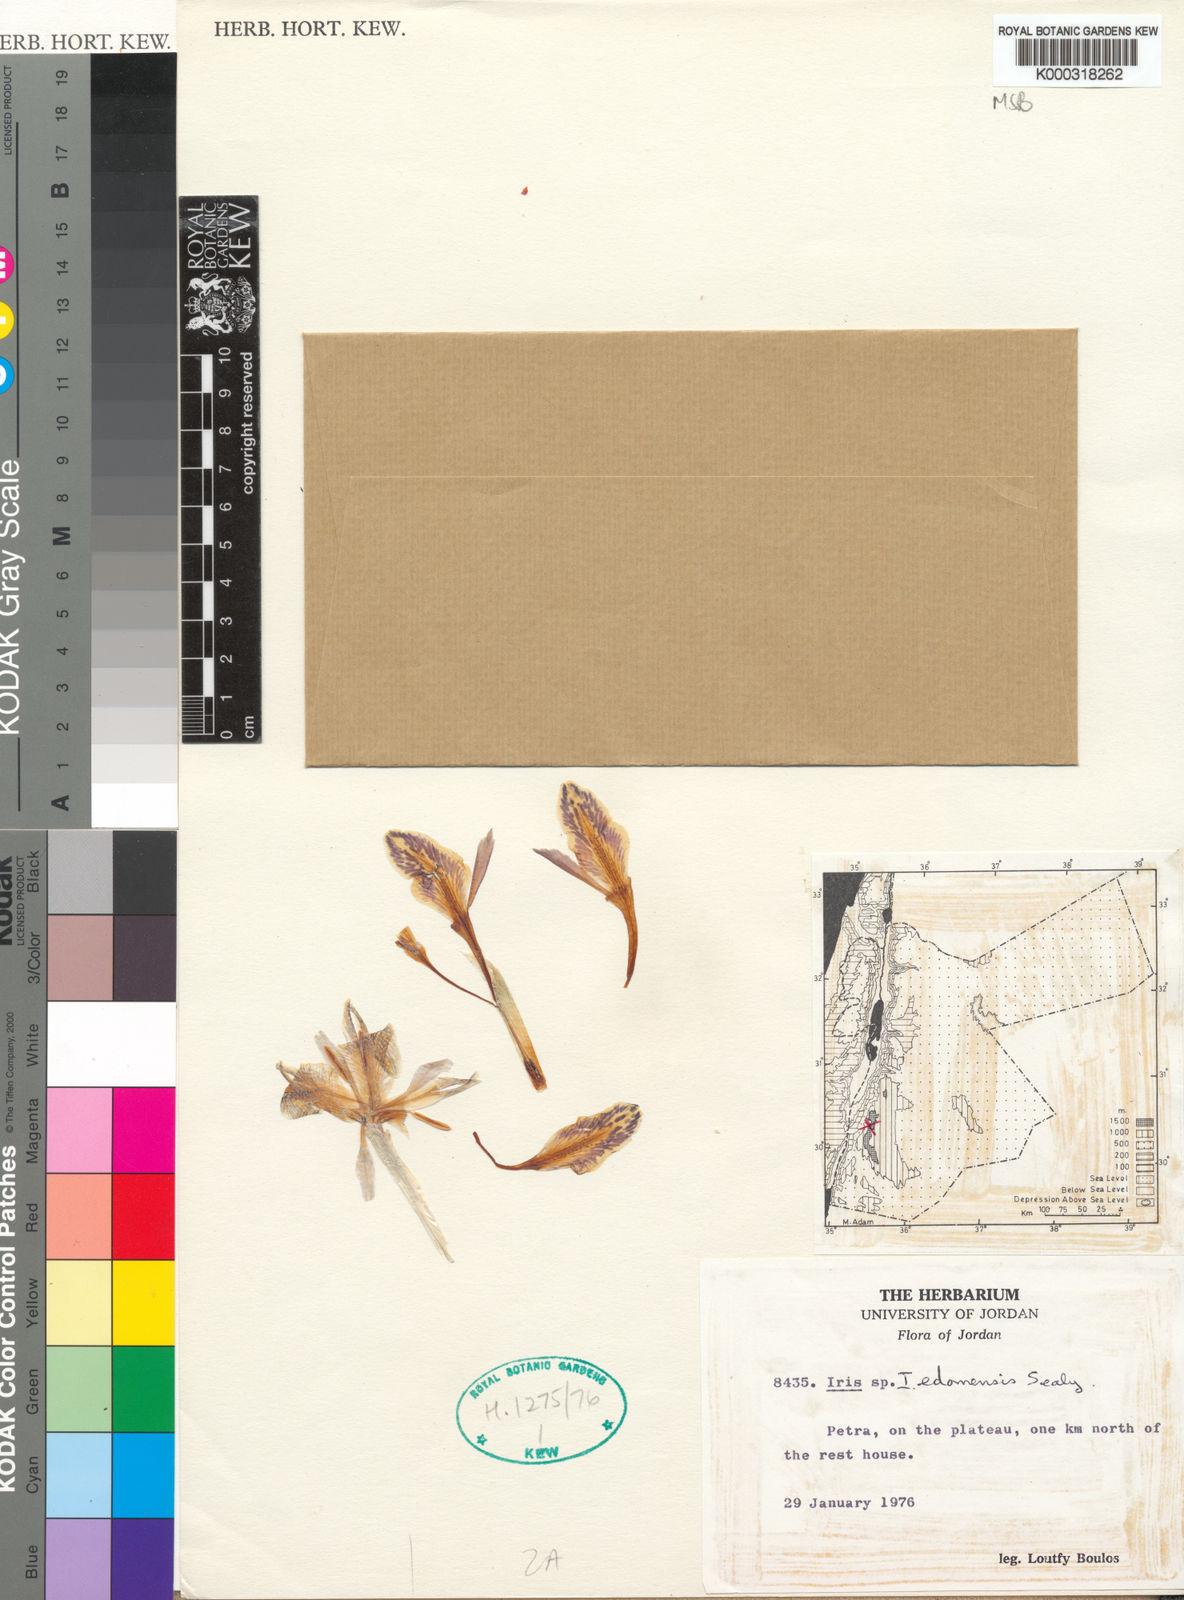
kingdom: Plantae
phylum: Tracheophyta
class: Liliopsida
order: Asparagales
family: Iridaceae
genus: Iris
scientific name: Iris edomensis
